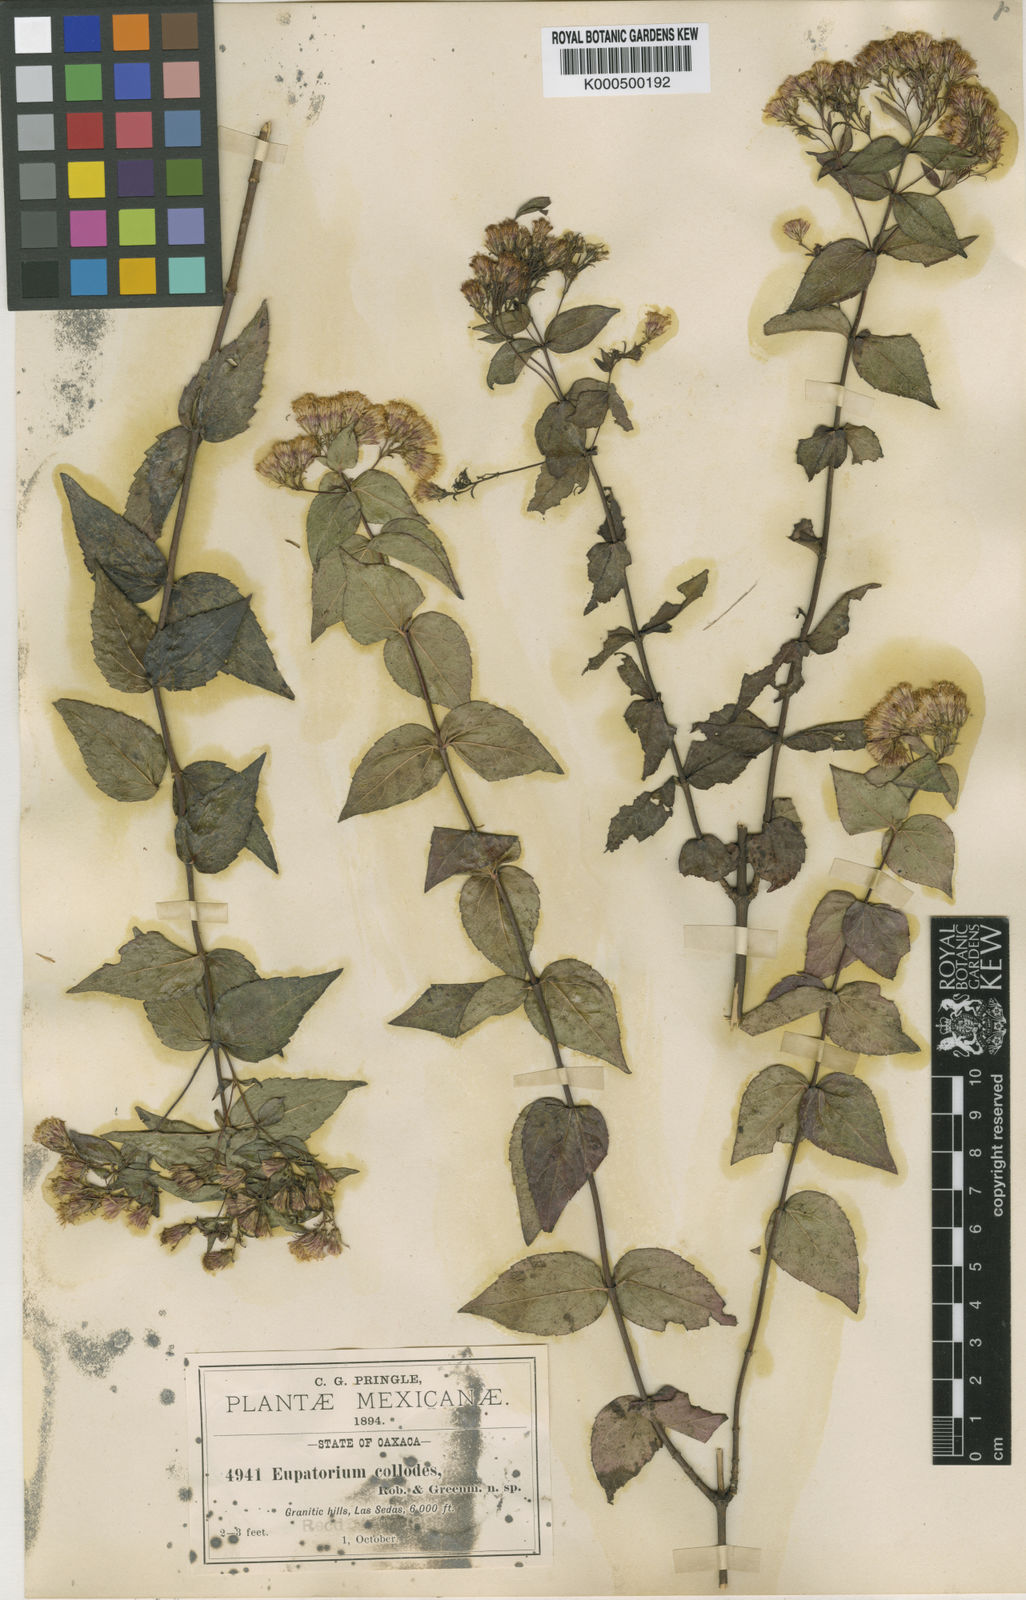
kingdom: Plantae
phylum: Tracheophyta
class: Magnoliopsida
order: Asterales
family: Asteraceae
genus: Ageratina
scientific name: Ageratina collodes
